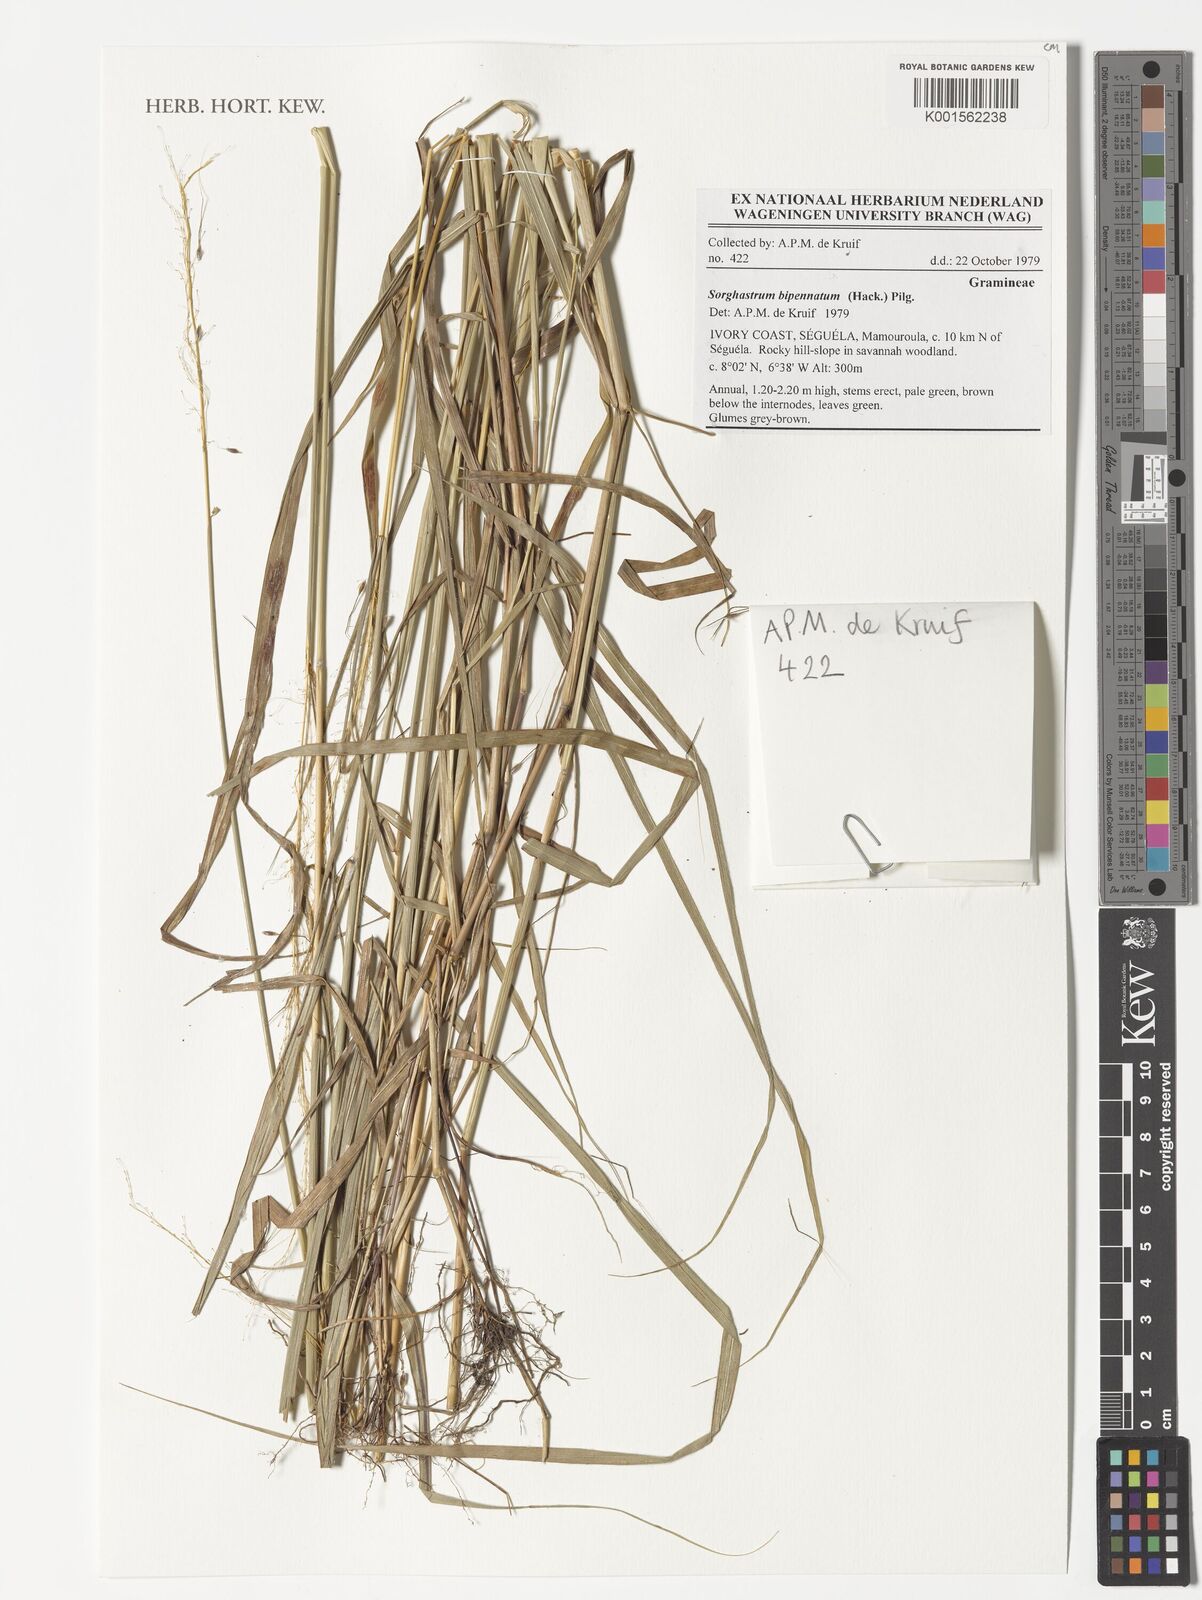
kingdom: Plantae
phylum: Tracheophyta
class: Liliopsida
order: Poales
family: Poaceae
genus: Sorghastrum
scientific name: Sorghastrum incompletum
